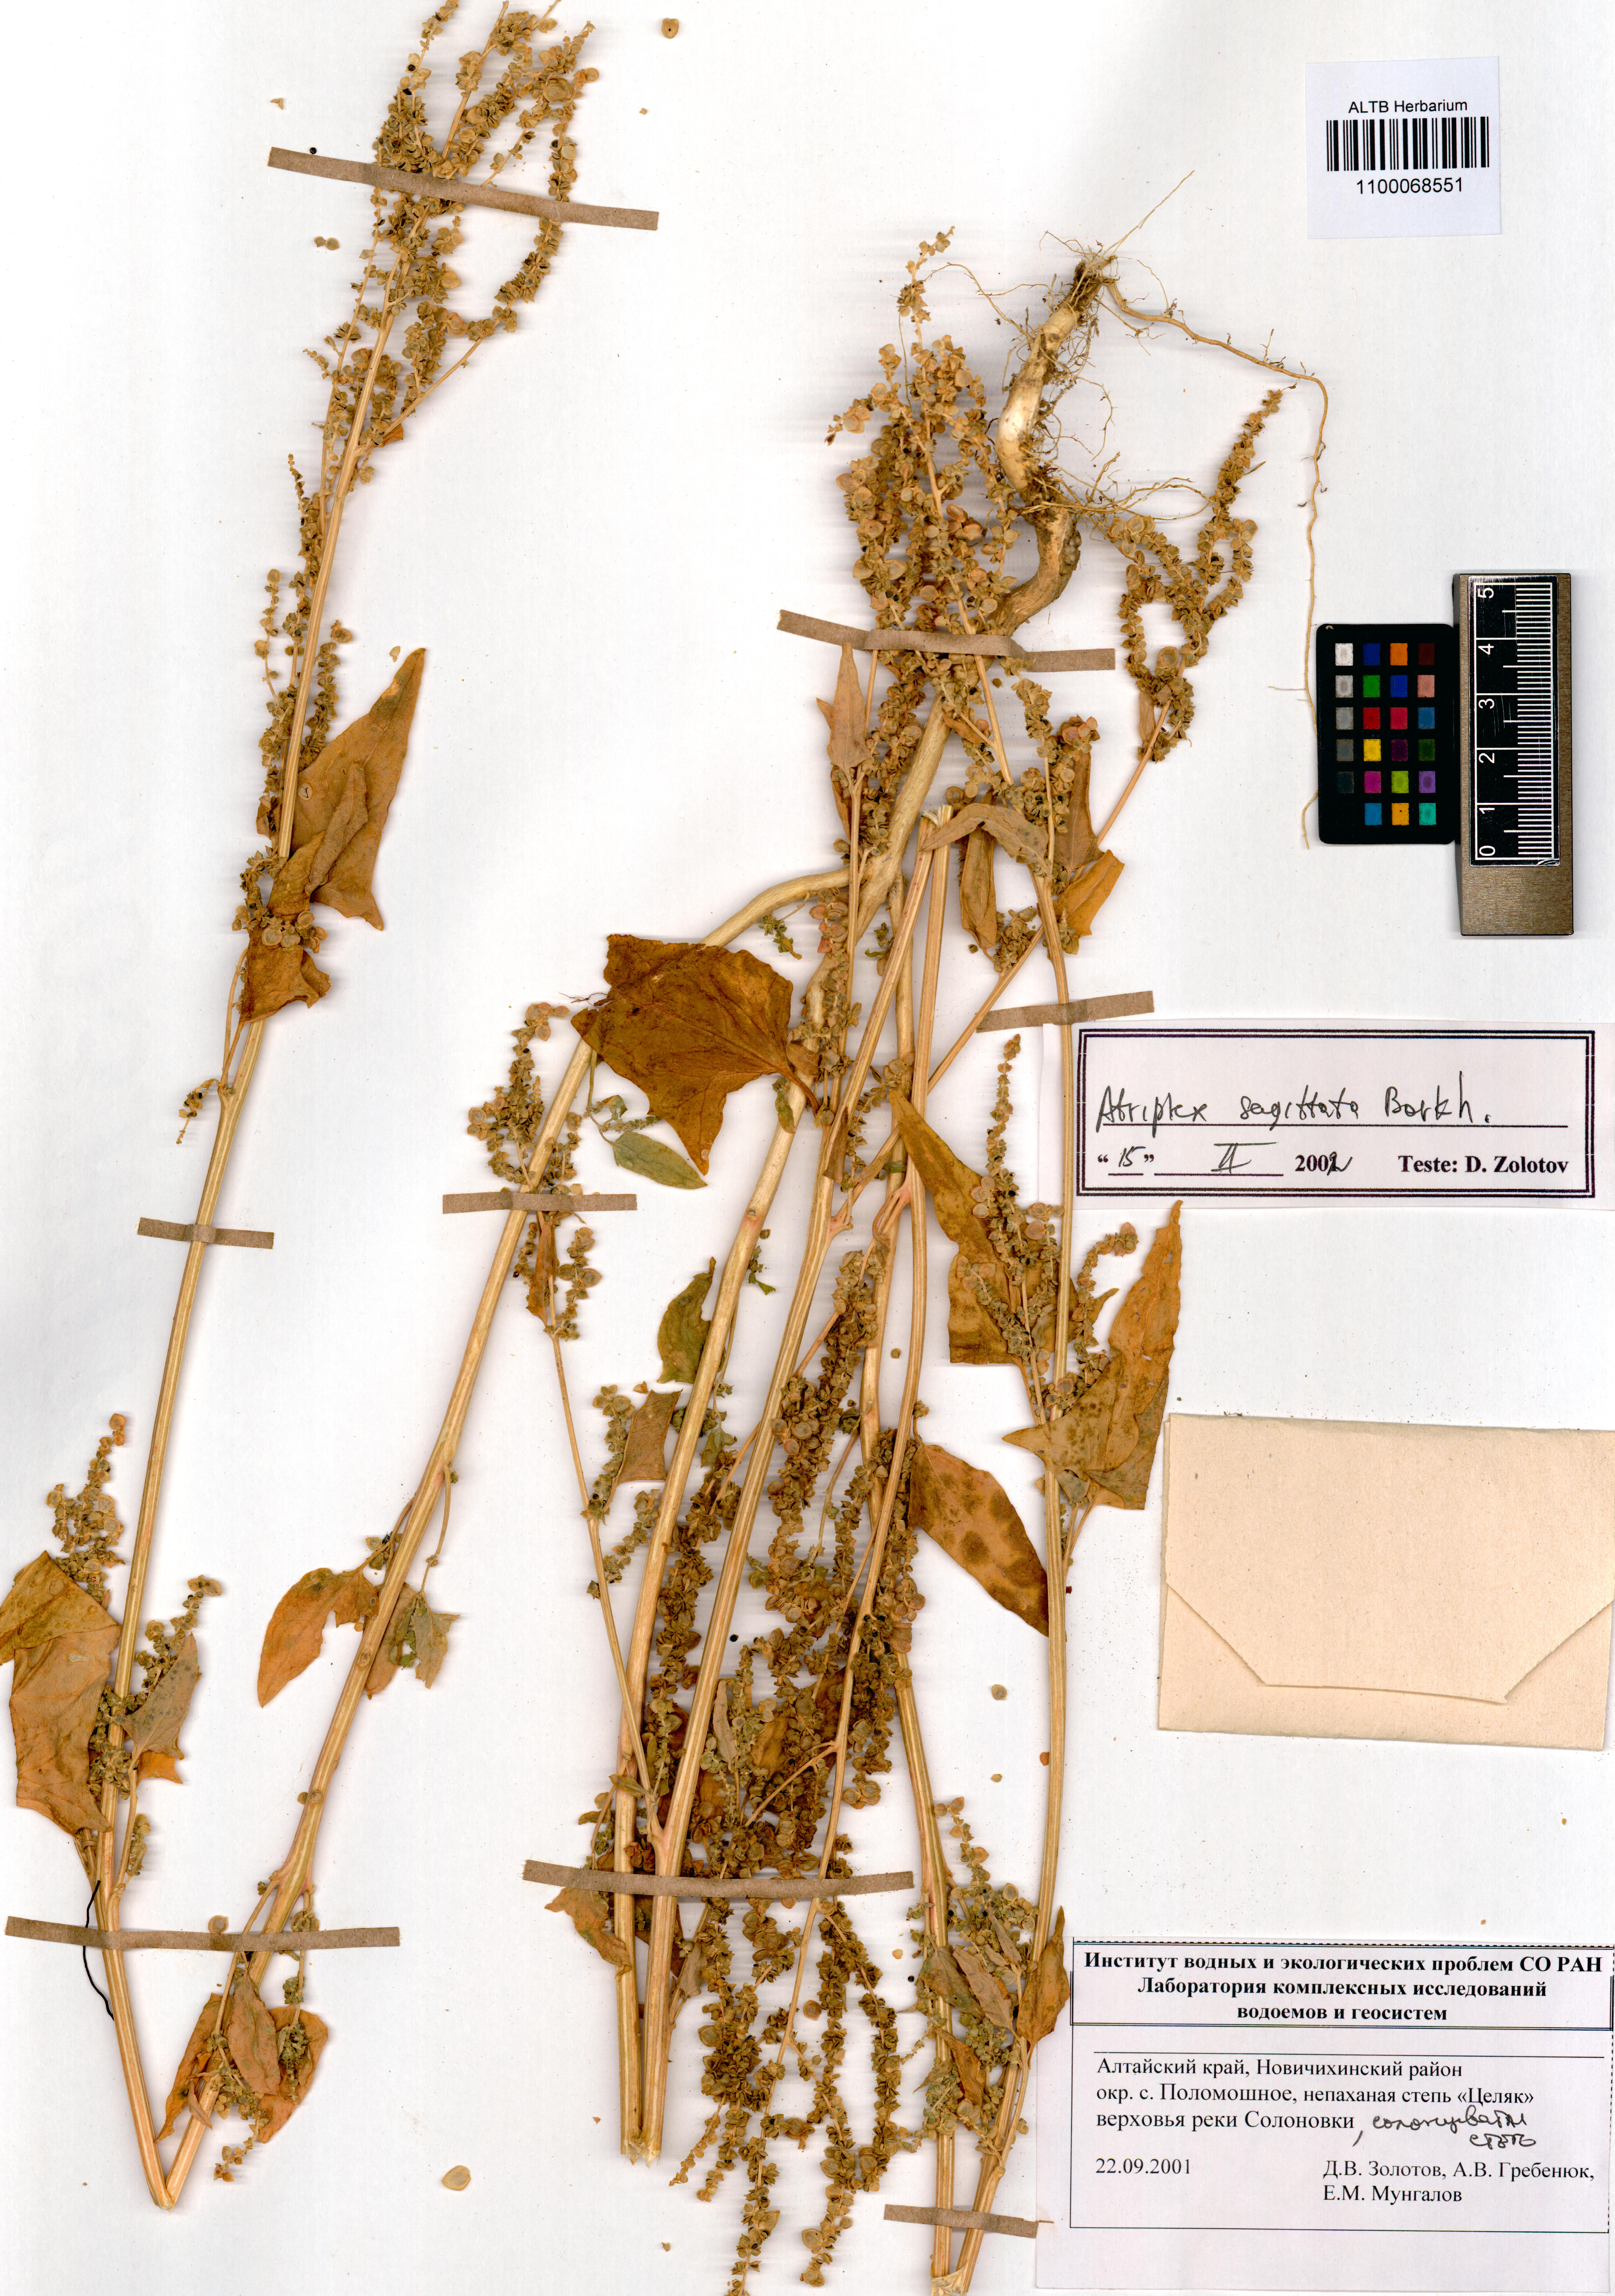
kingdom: Plantae
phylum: Tracheophyta
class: Magnoliopsida
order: Caryophyllales
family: Amaranthaceae
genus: Atriplex
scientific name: Atriplex sagittata
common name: Purple orache
